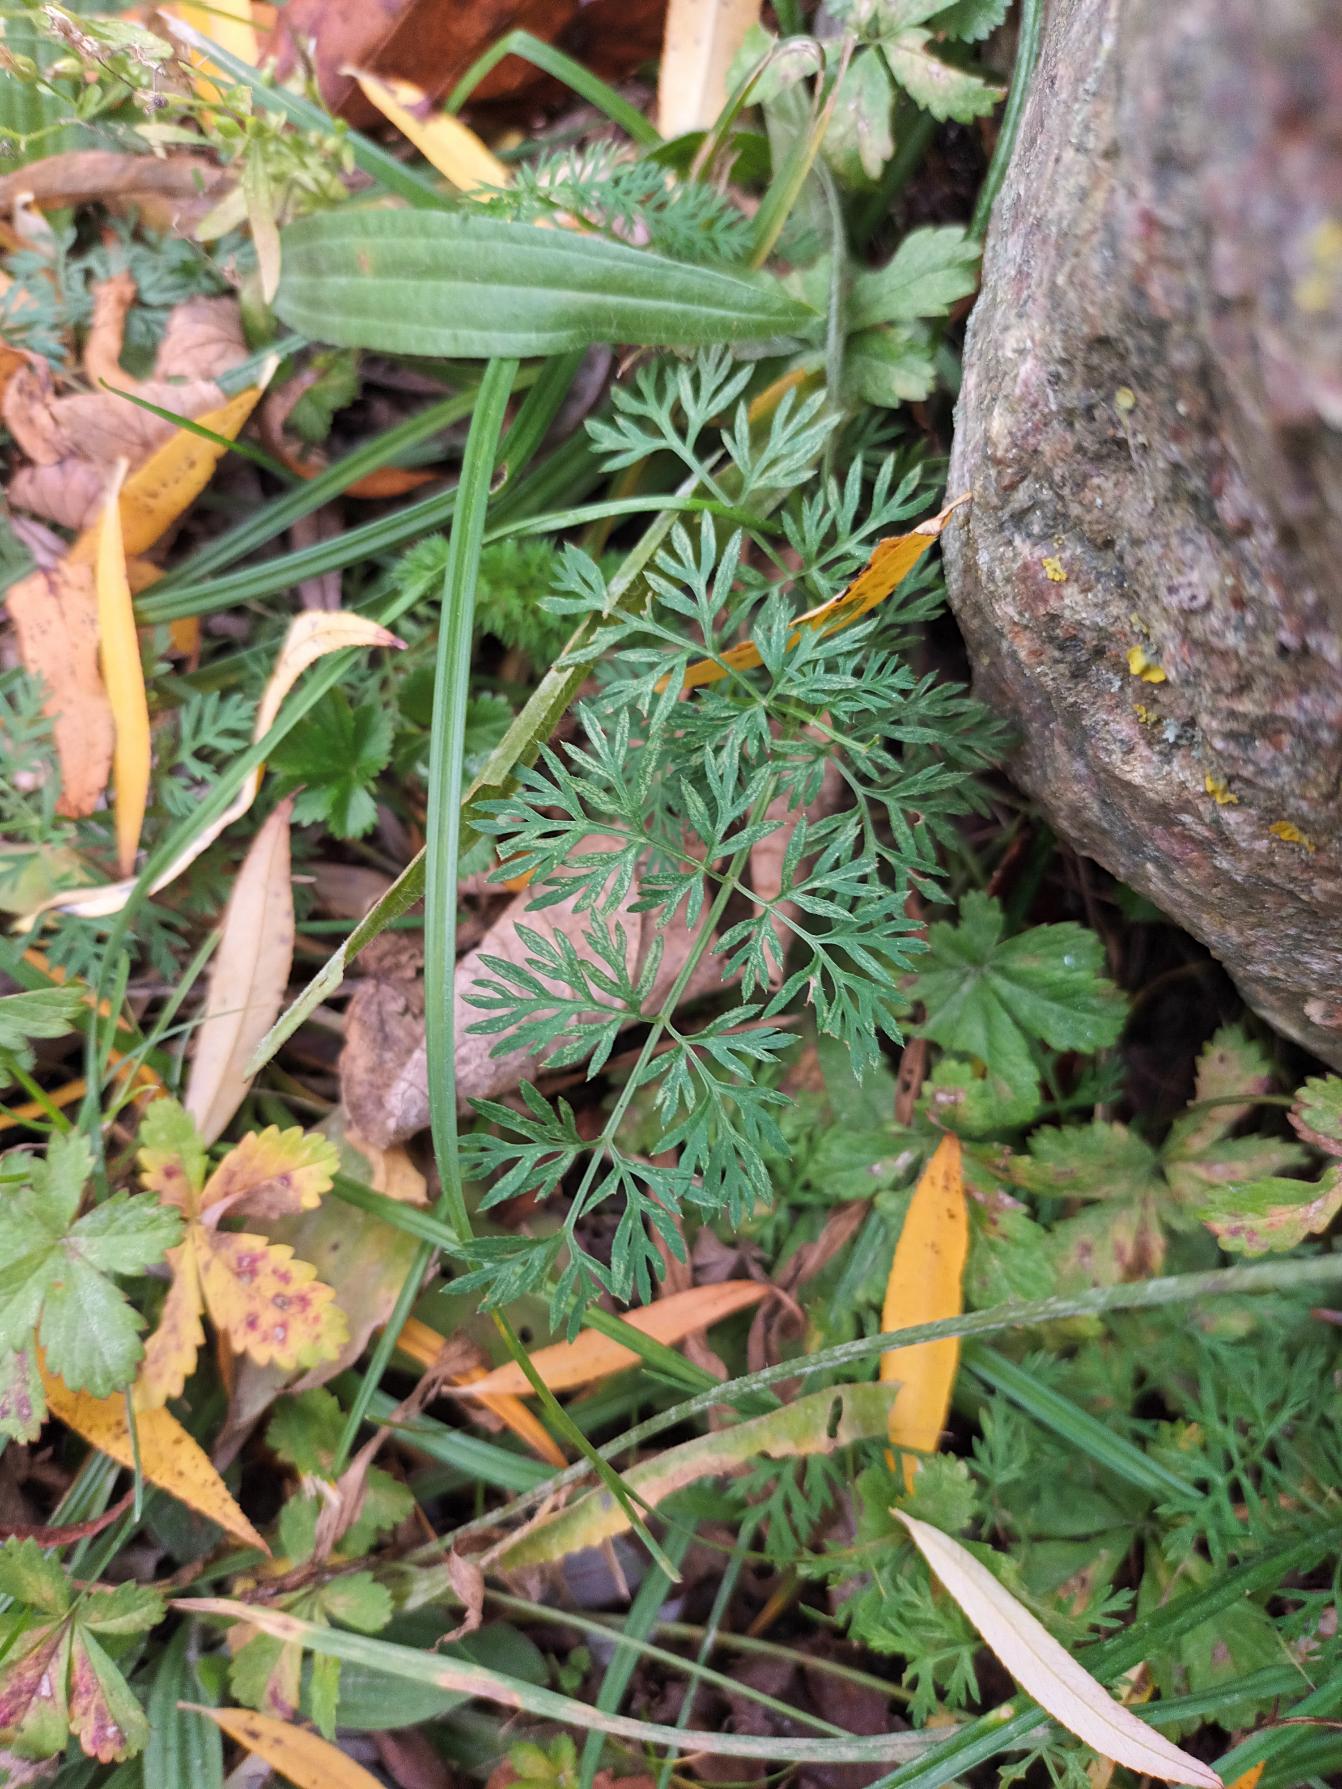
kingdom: Plantae
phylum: Tracheophyta
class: Magnoliopsida
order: Apiales
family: Apiaceae
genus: Daucus
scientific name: Daucus carota
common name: Gulerod
